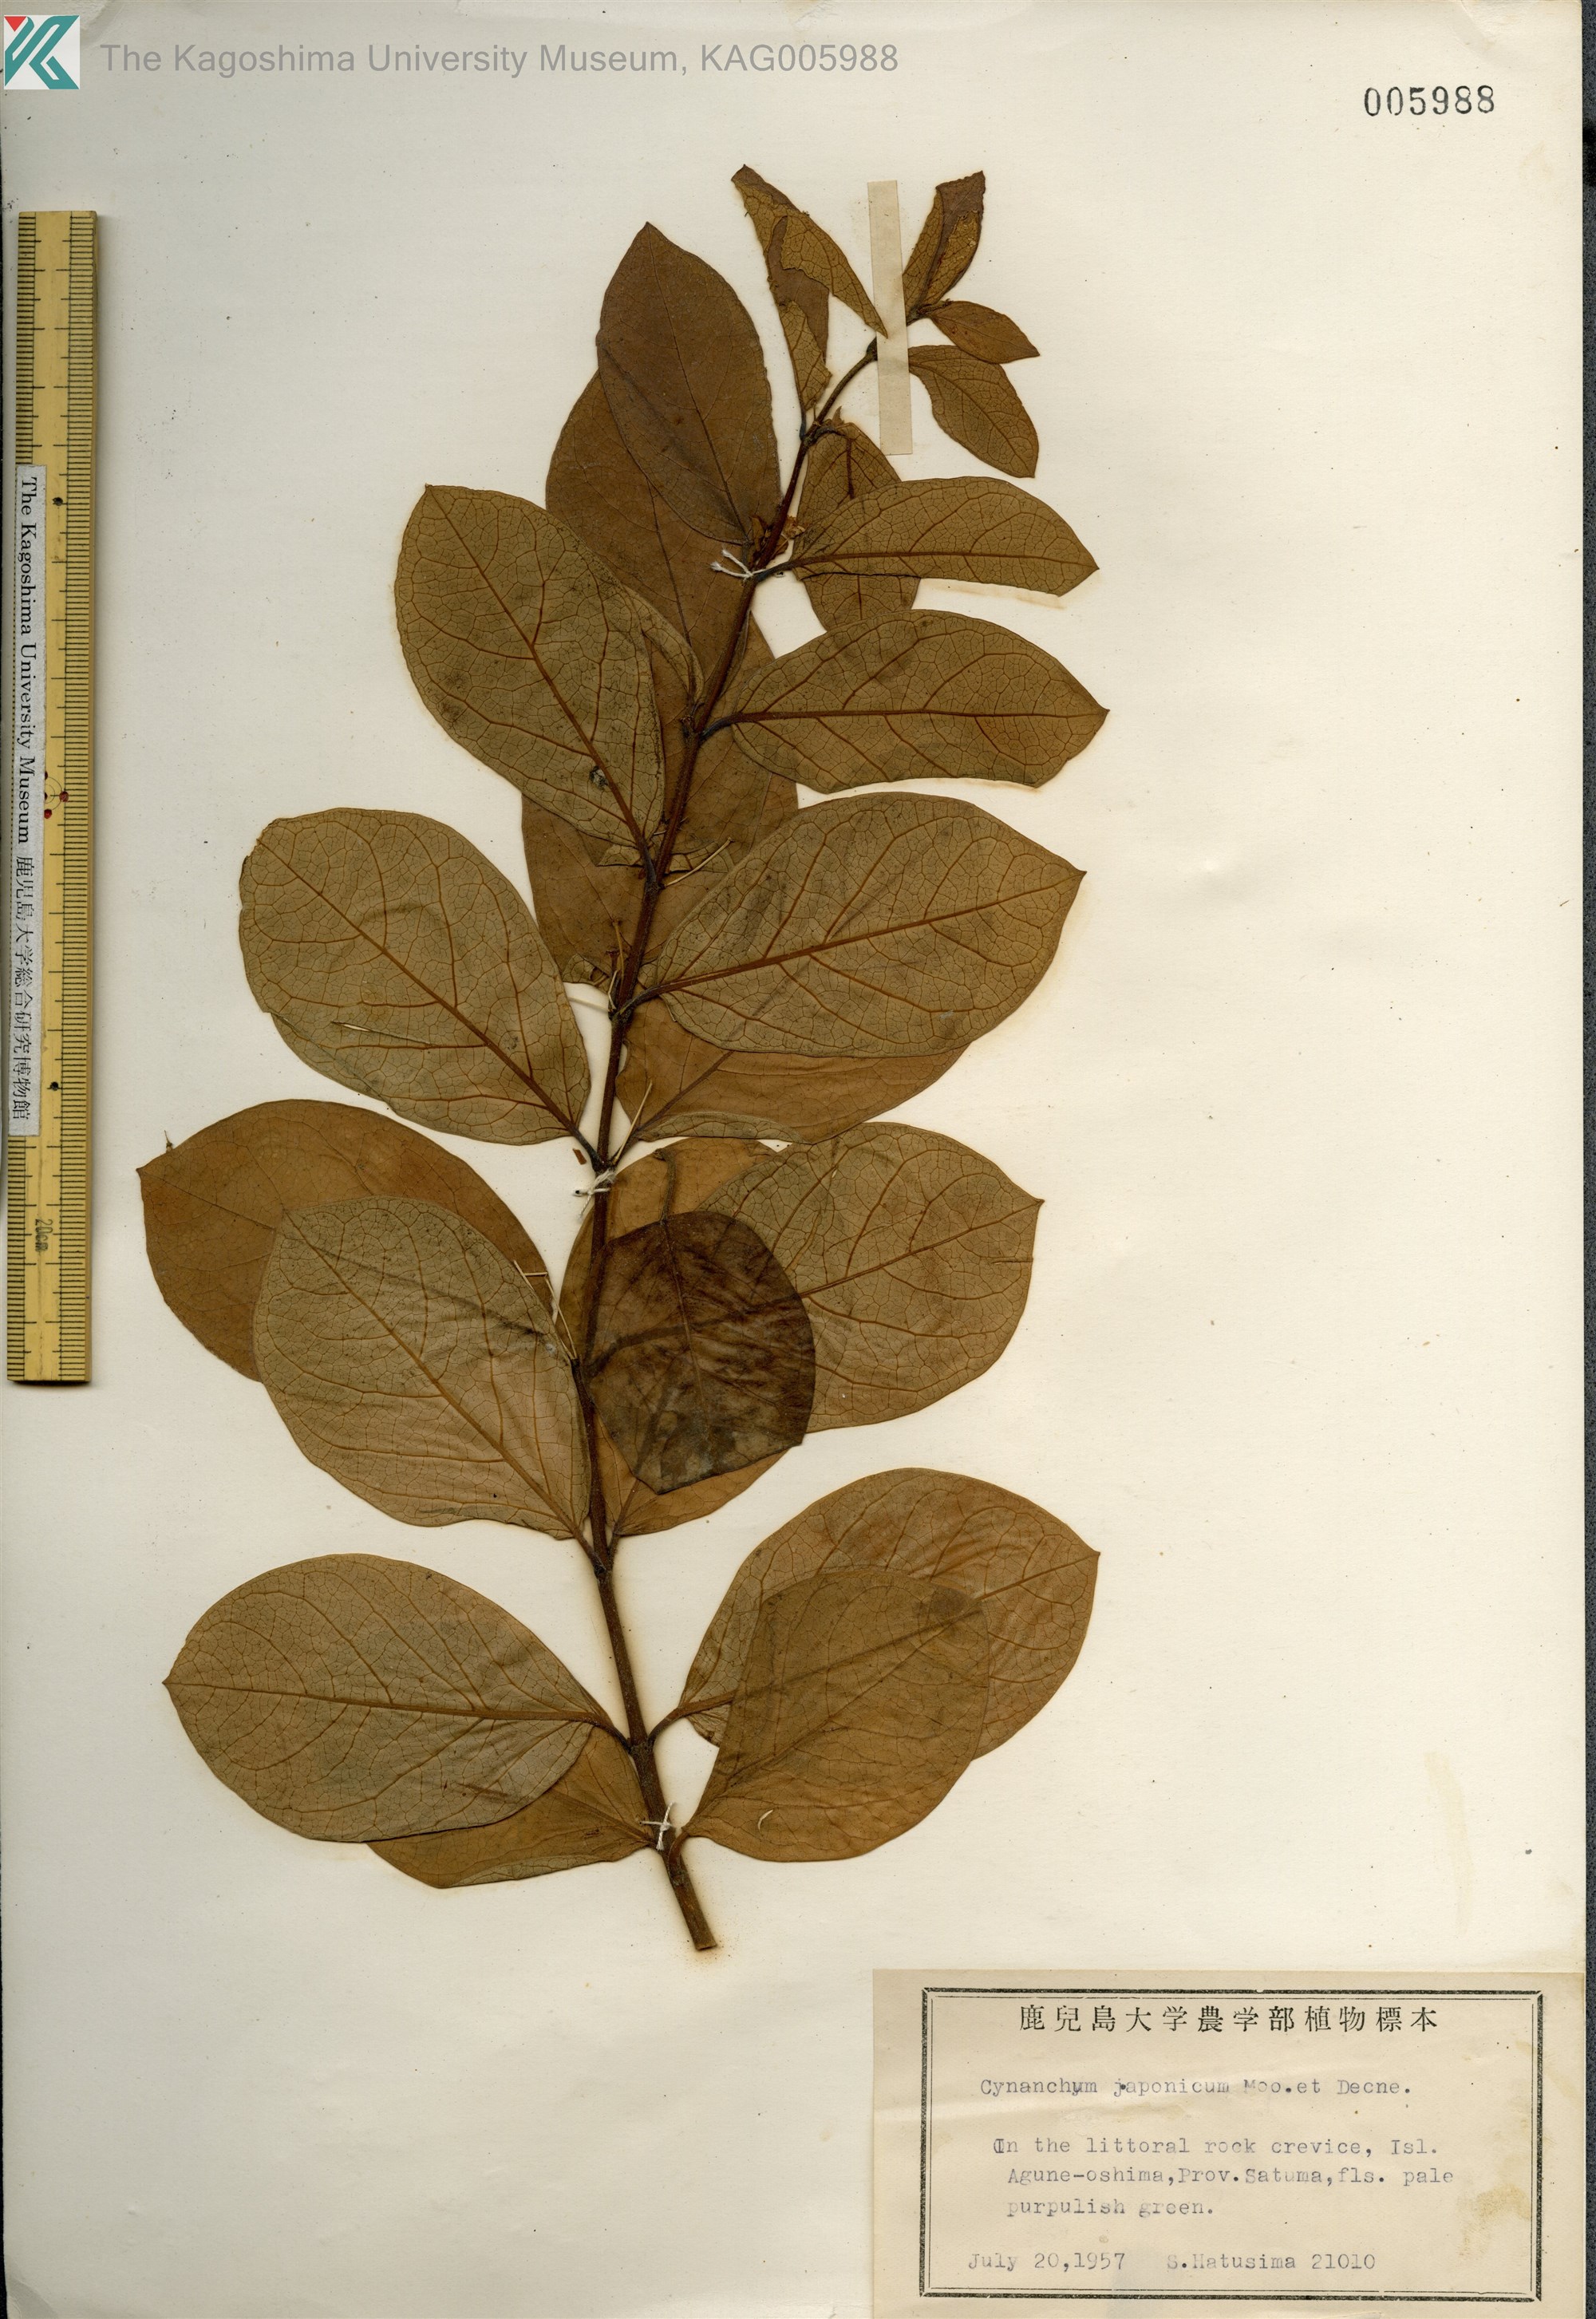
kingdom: Plantae
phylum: Tracheophyta
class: Magnoliopsida
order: Gentianales
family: Apocynaceae
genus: Vincetoxicum
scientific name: Vincetoxicum japonicum
